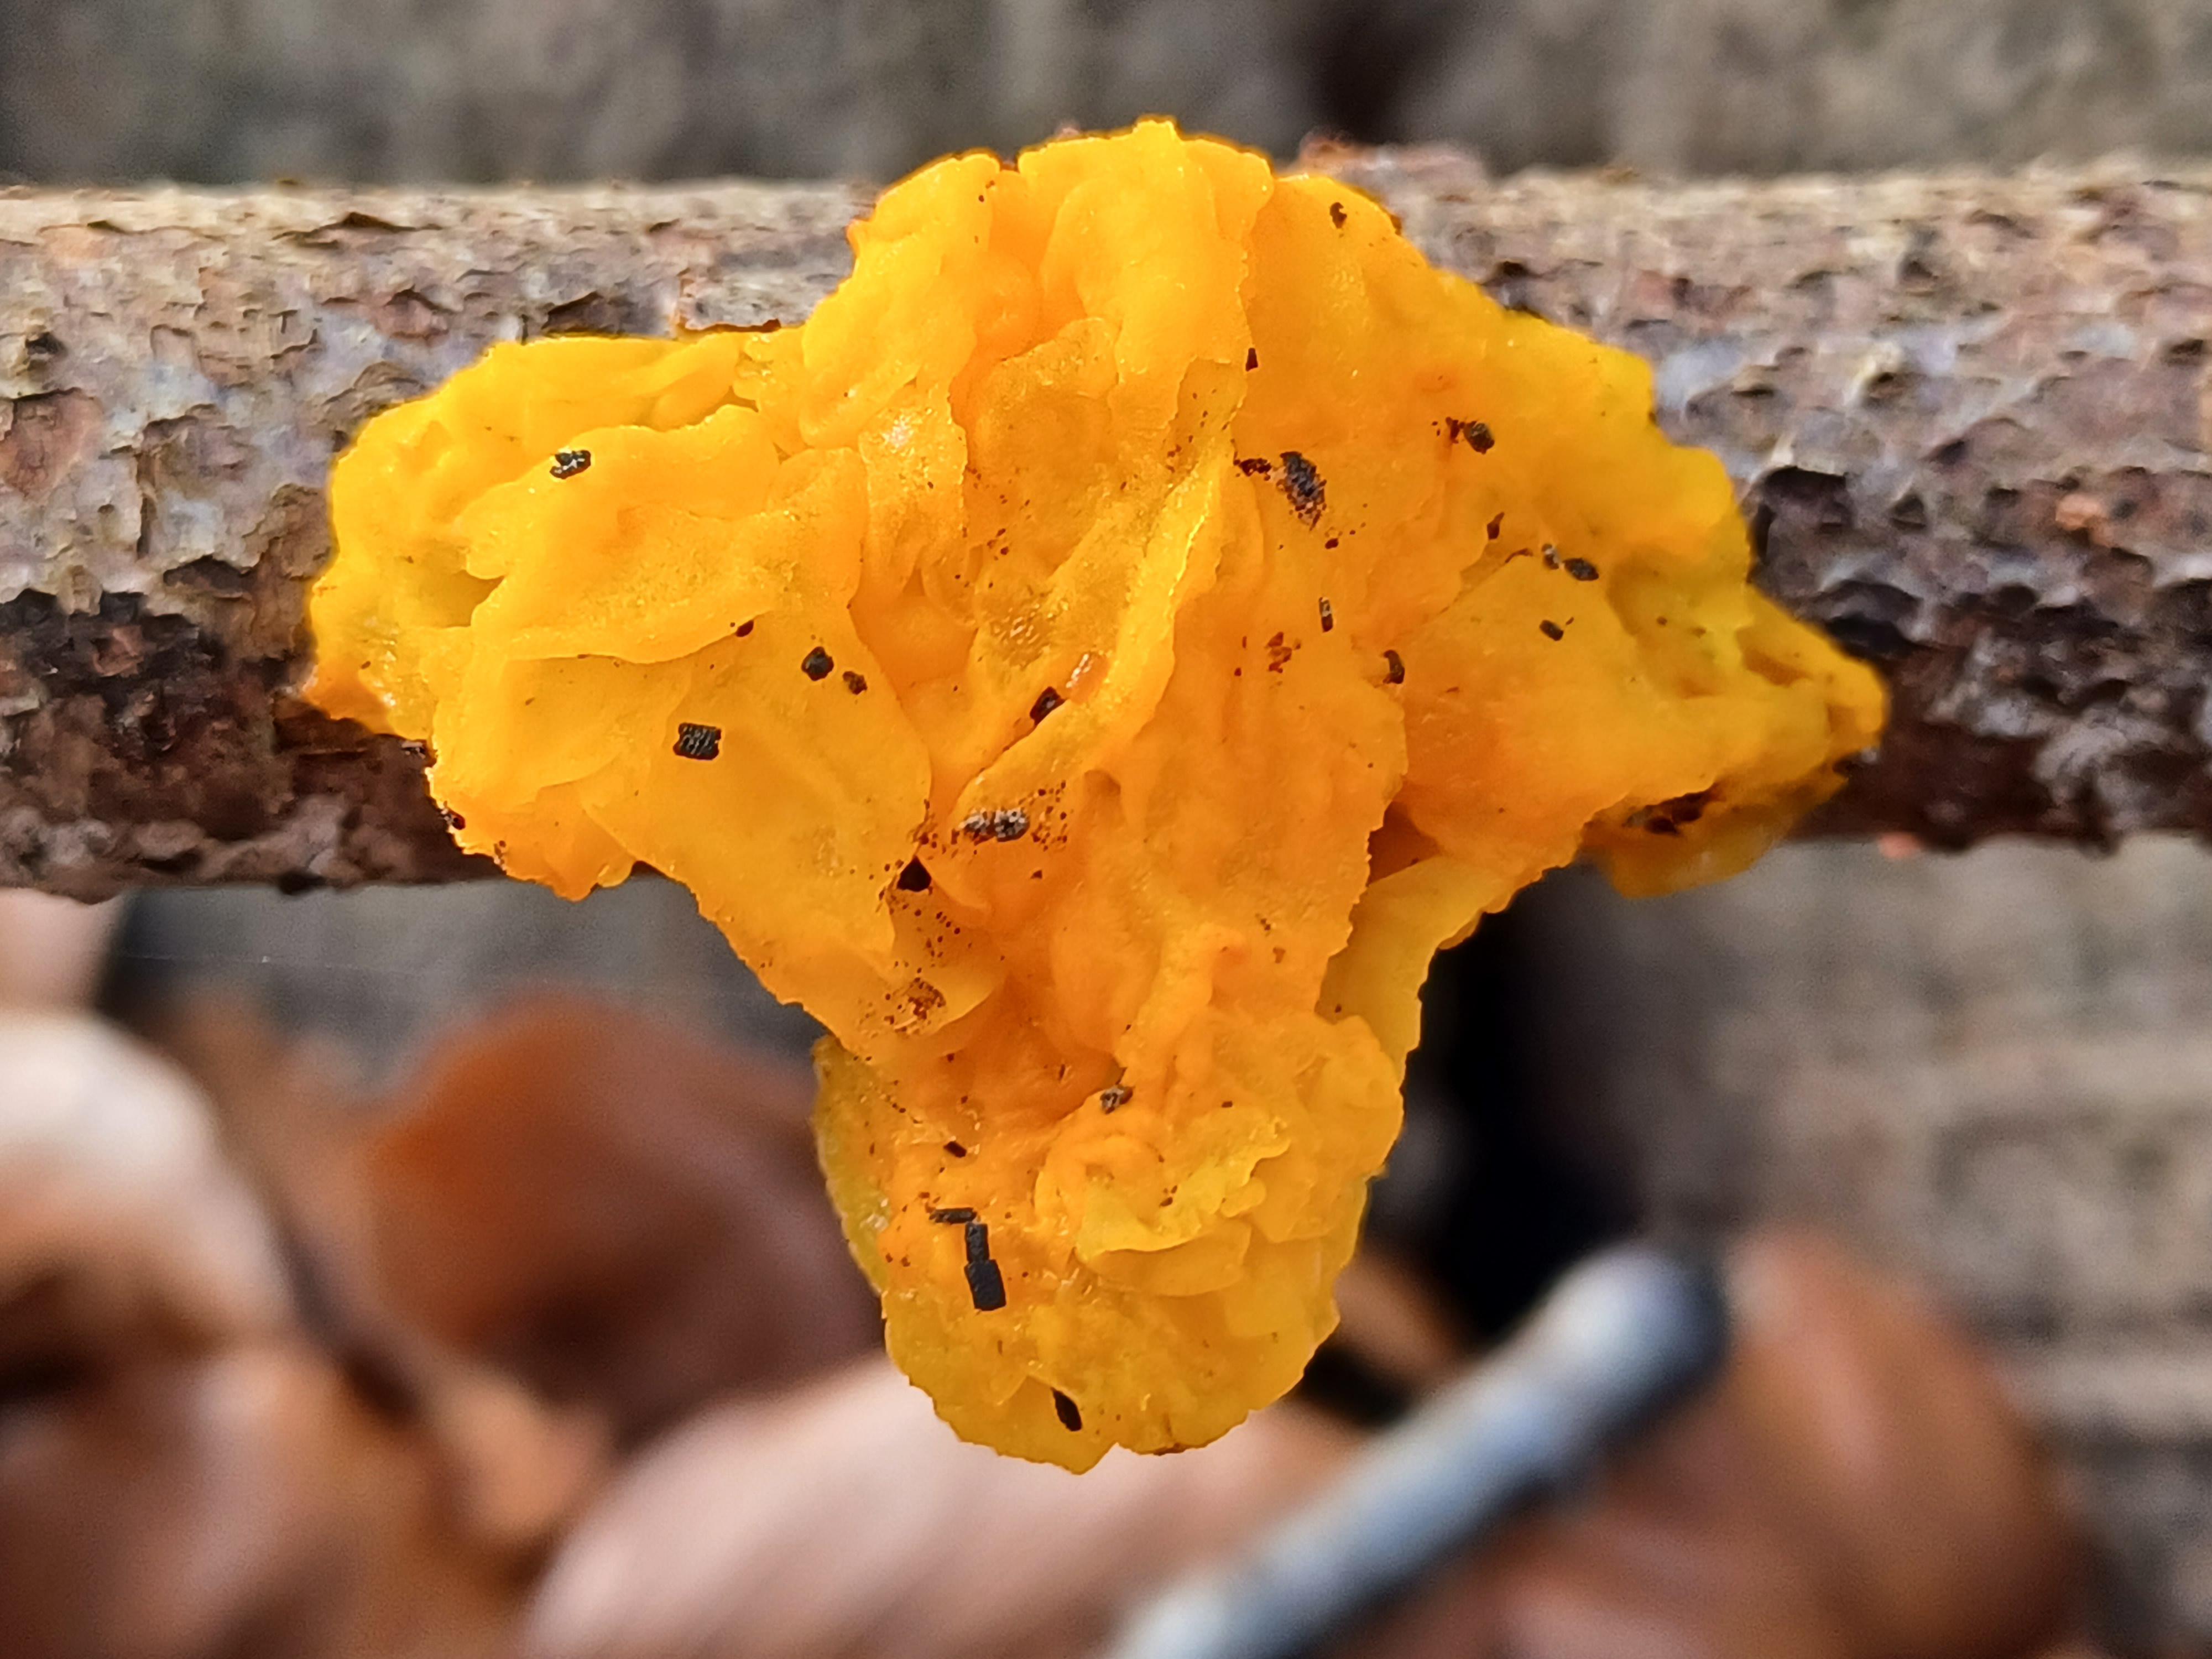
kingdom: Fungi
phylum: Basidiomycota
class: Tremellomycetes
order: Tremellales
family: Tremellaceae
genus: Tremella
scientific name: Tremella mesenterica
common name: gul bævresvamp
